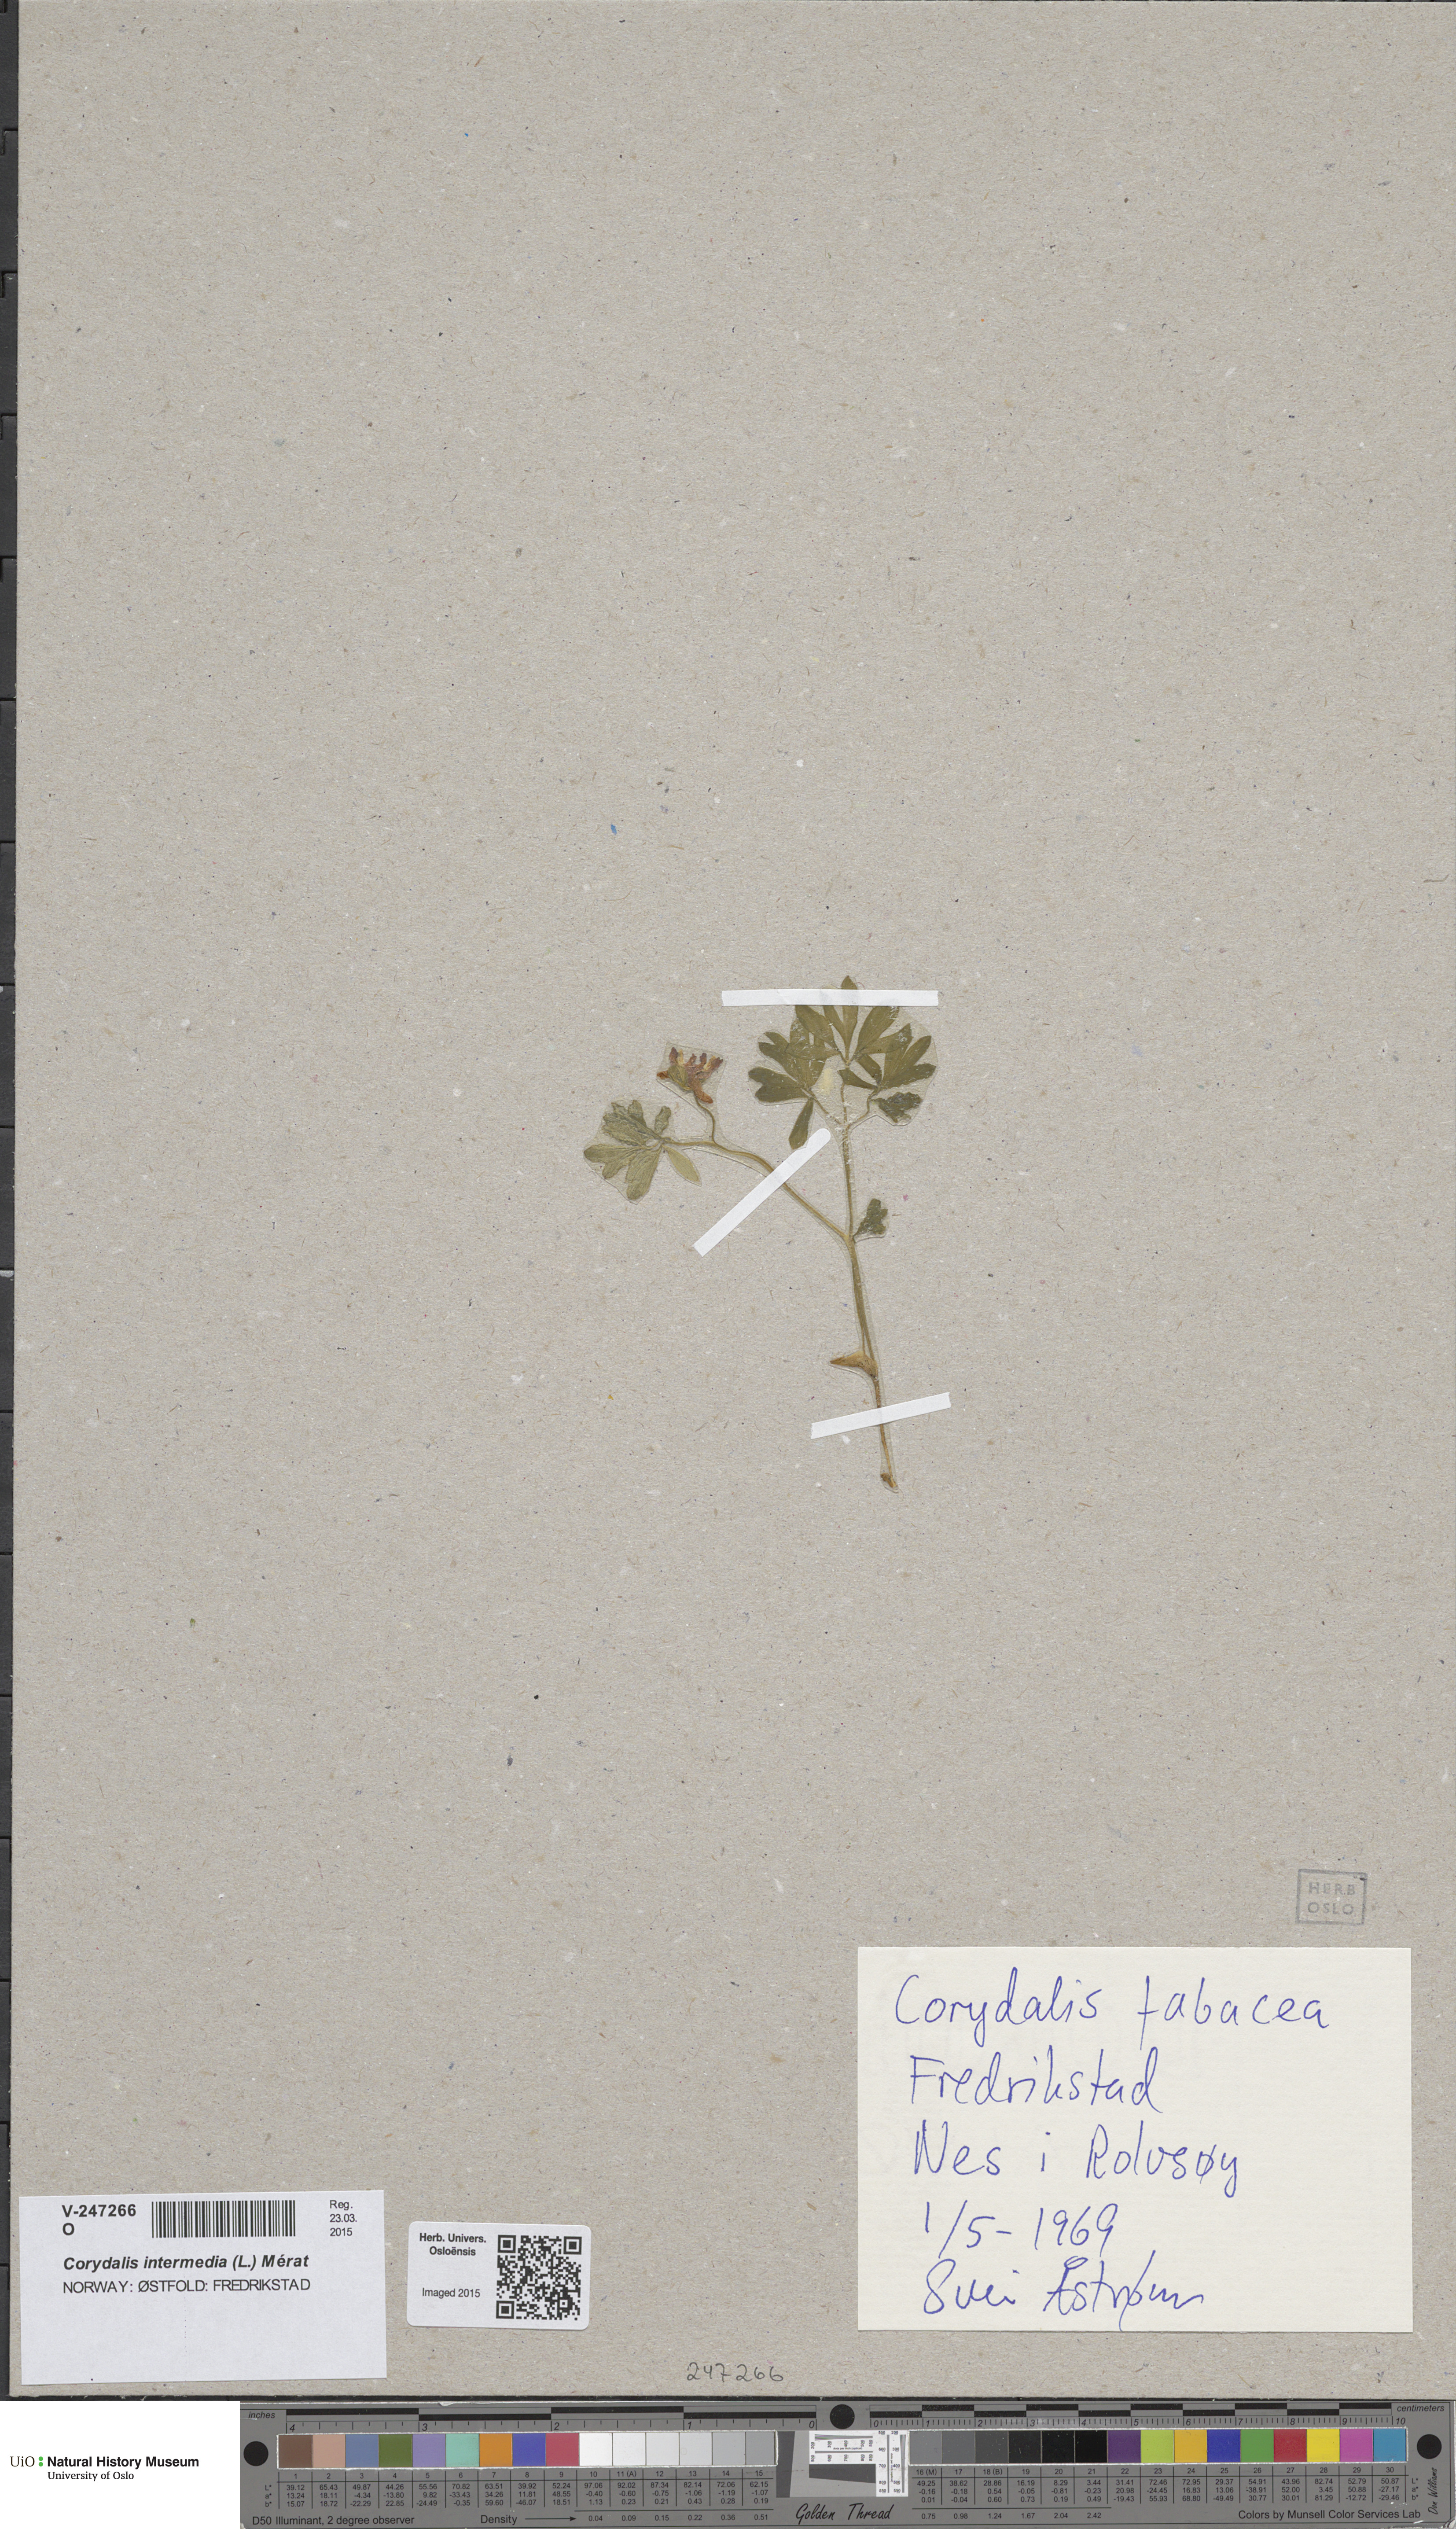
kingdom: Plantae
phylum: Tracheophyta
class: Magnoliopsida
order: Ranunculales
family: Papaveraceae
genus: Corydalis
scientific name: Corydalis intermedia
